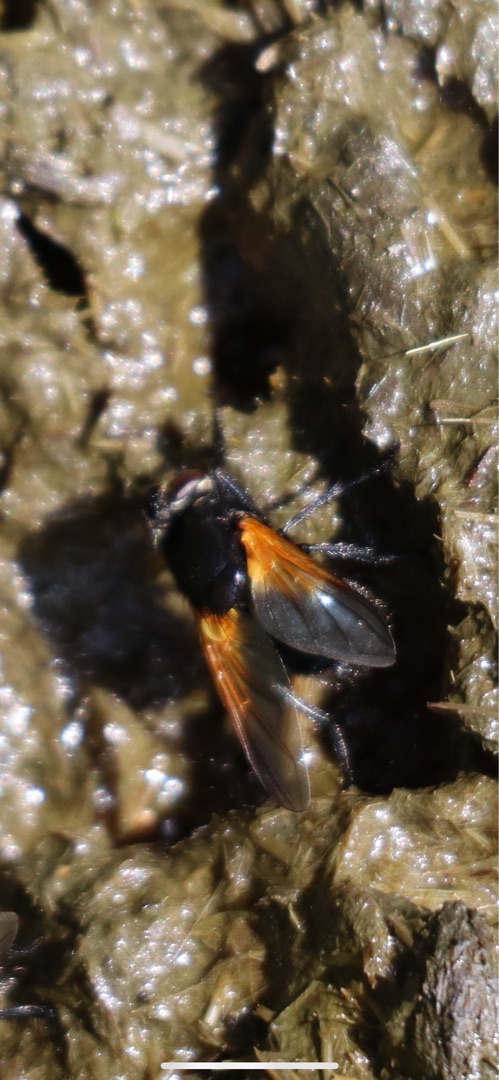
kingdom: Animalia
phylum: Arthropoda
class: Insecta
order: Diptera
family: Muscidae
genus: Mesembrina
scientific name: Mesembrina meridiana
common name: Gulvinget flue
